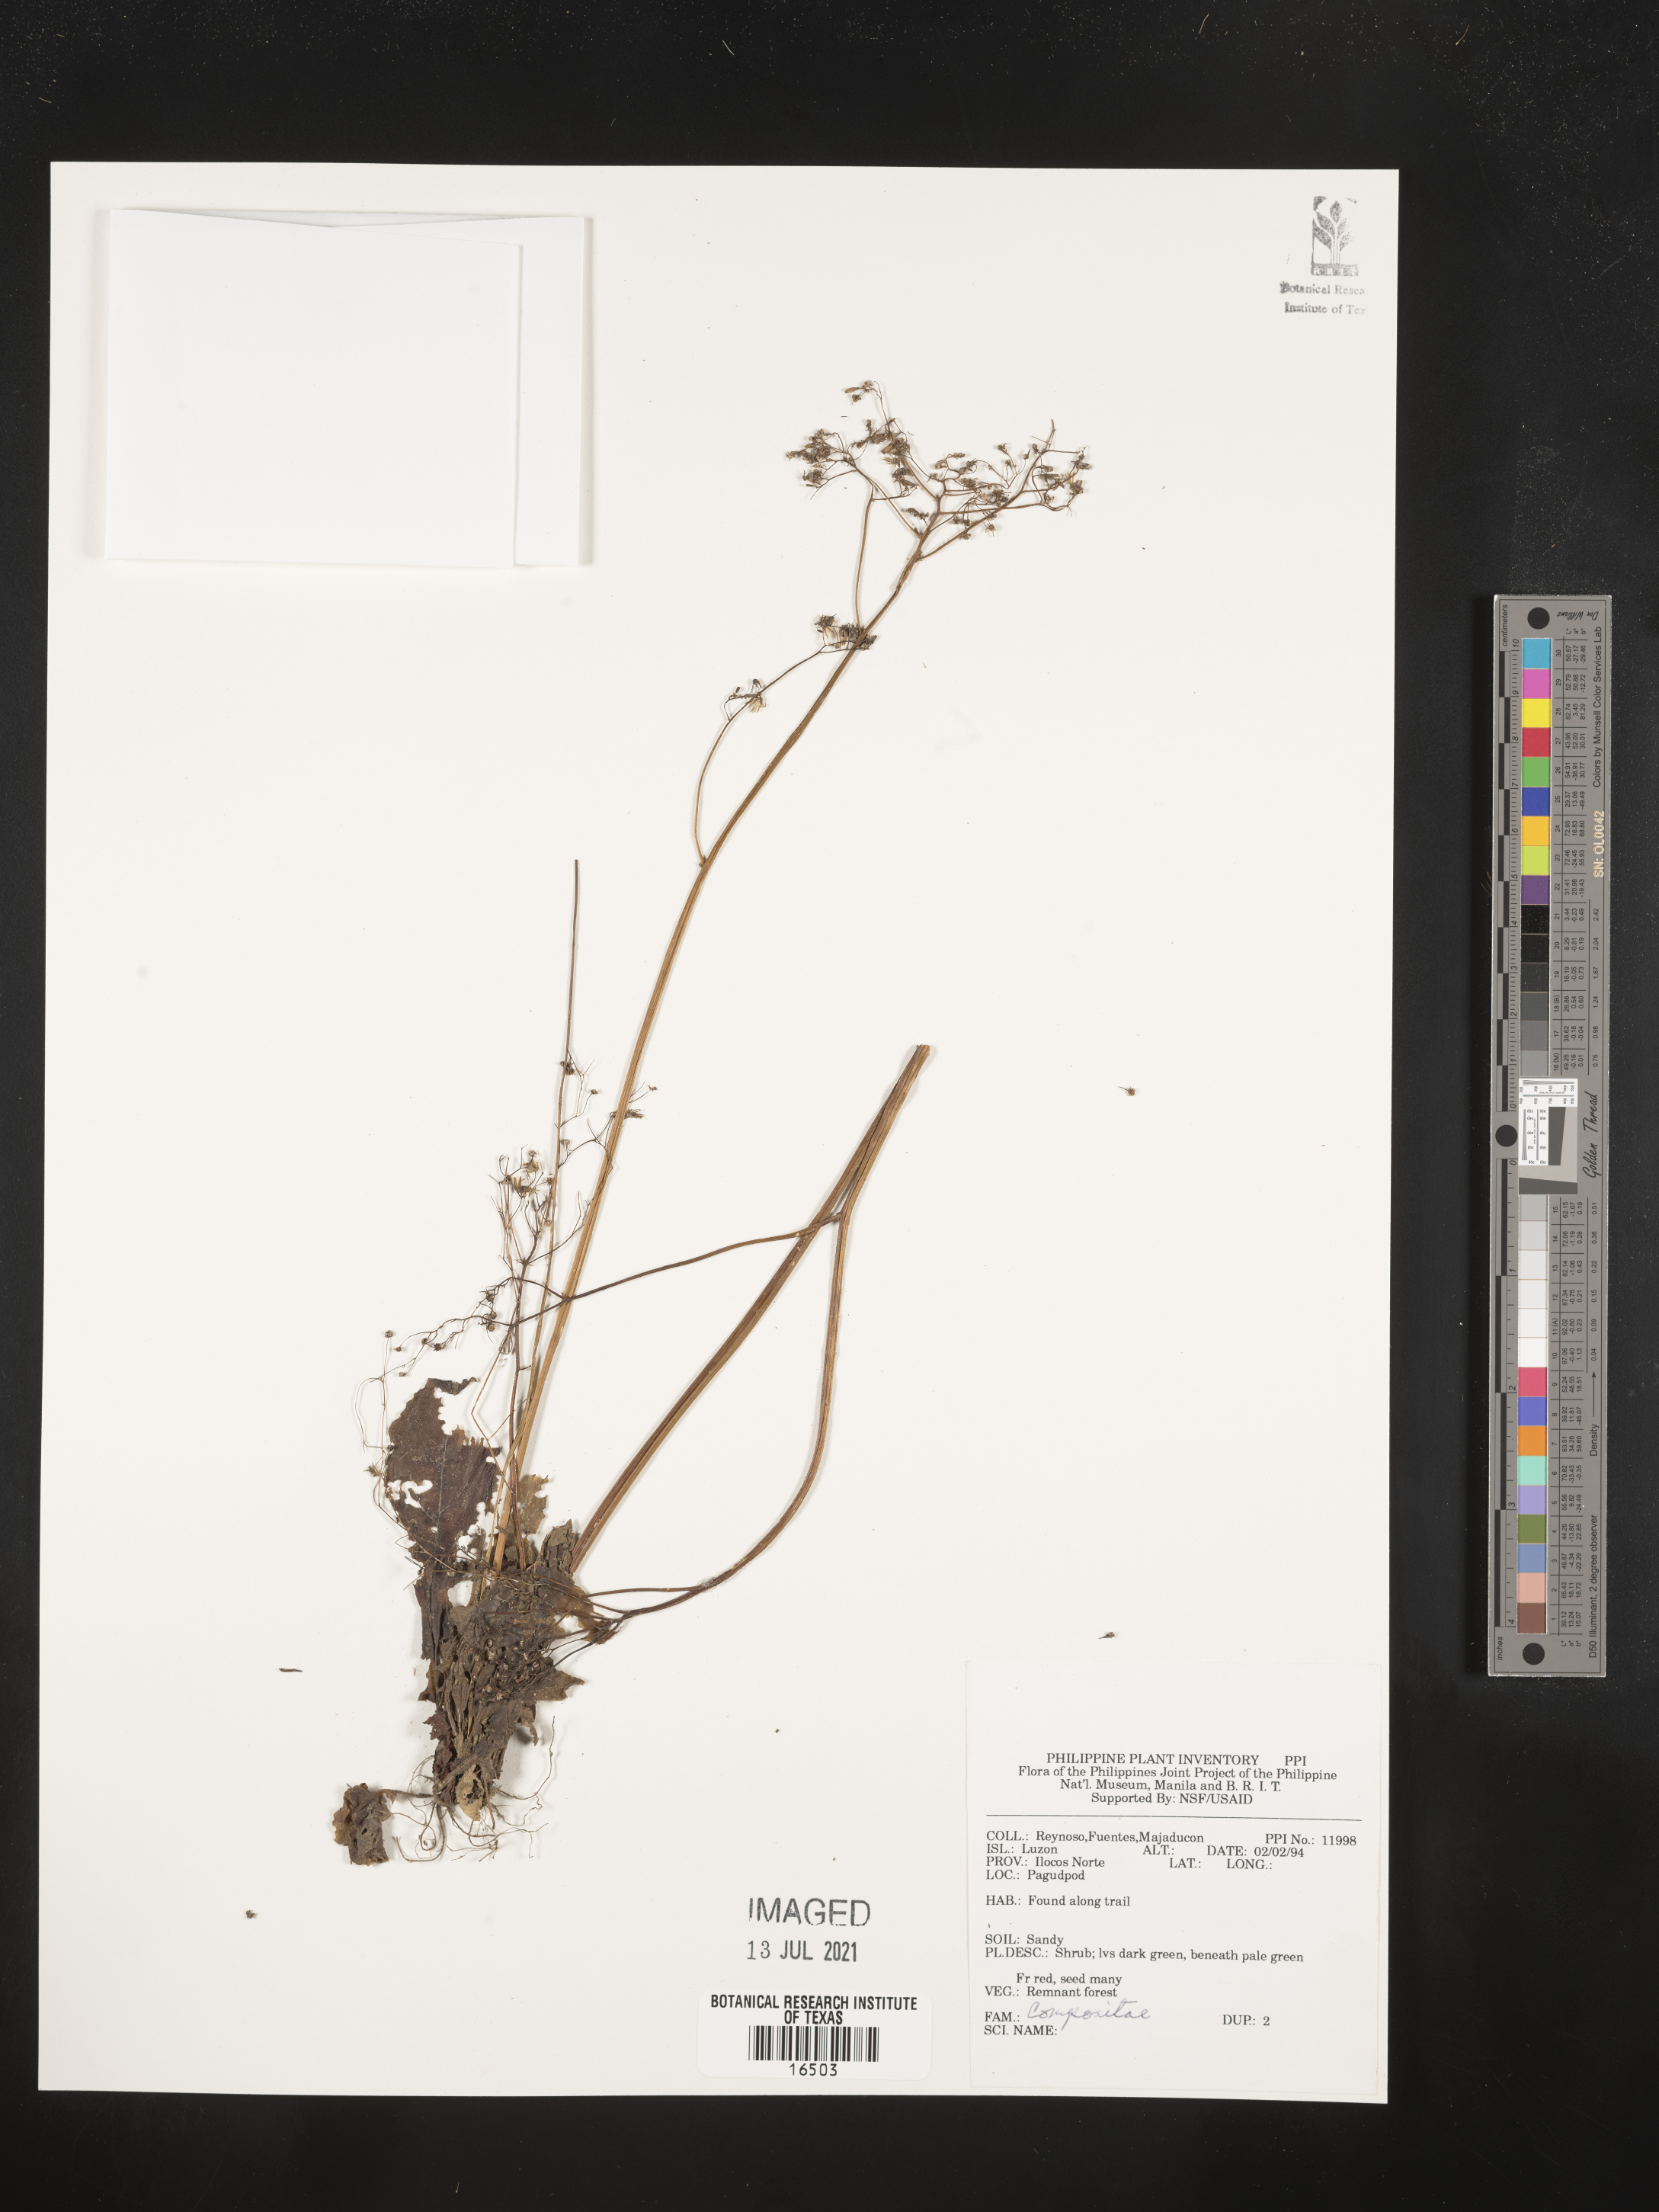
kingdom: Plantae
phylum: Tracheophyta
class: Magnoliopsida
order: Asterales
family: Asteraceae
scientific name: Asteraceae
